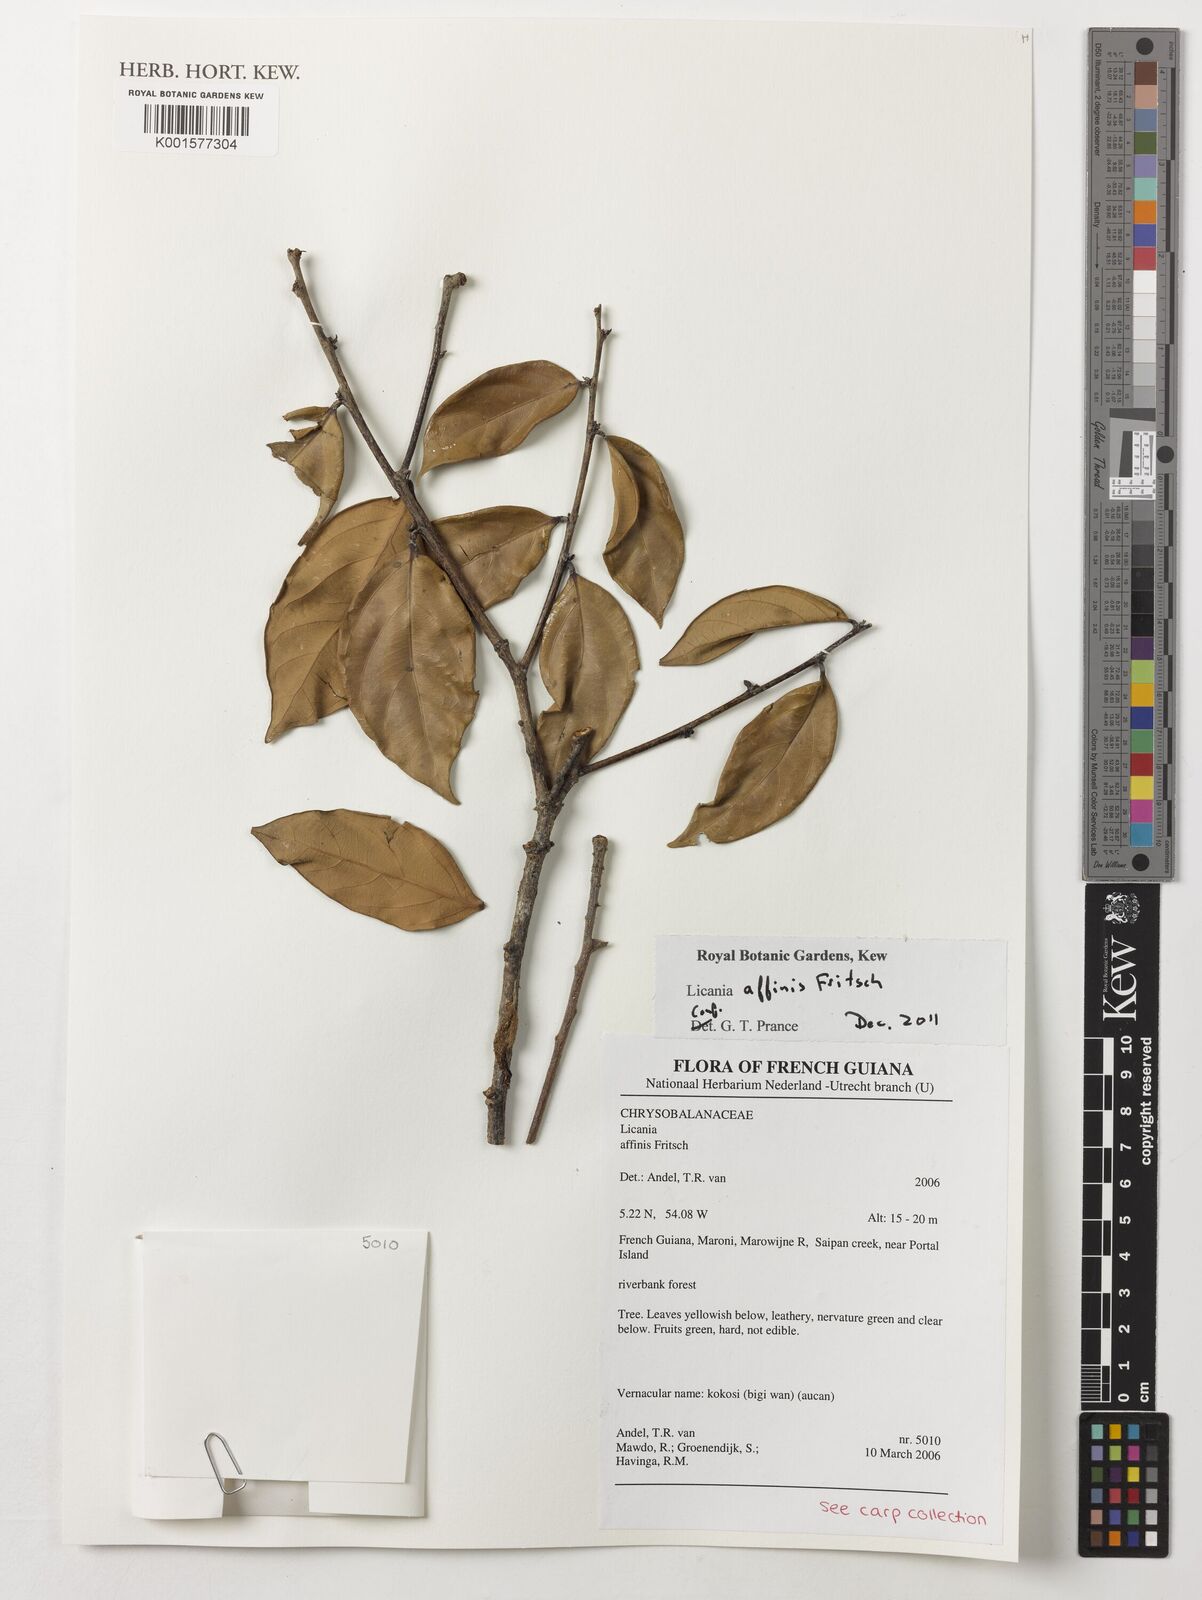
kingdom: Plantae
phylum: Tracheophyta
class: Magnoliopsida
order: Malpighiales
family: Chrysobalanaceae
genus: Licania
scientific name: Licania affinis
